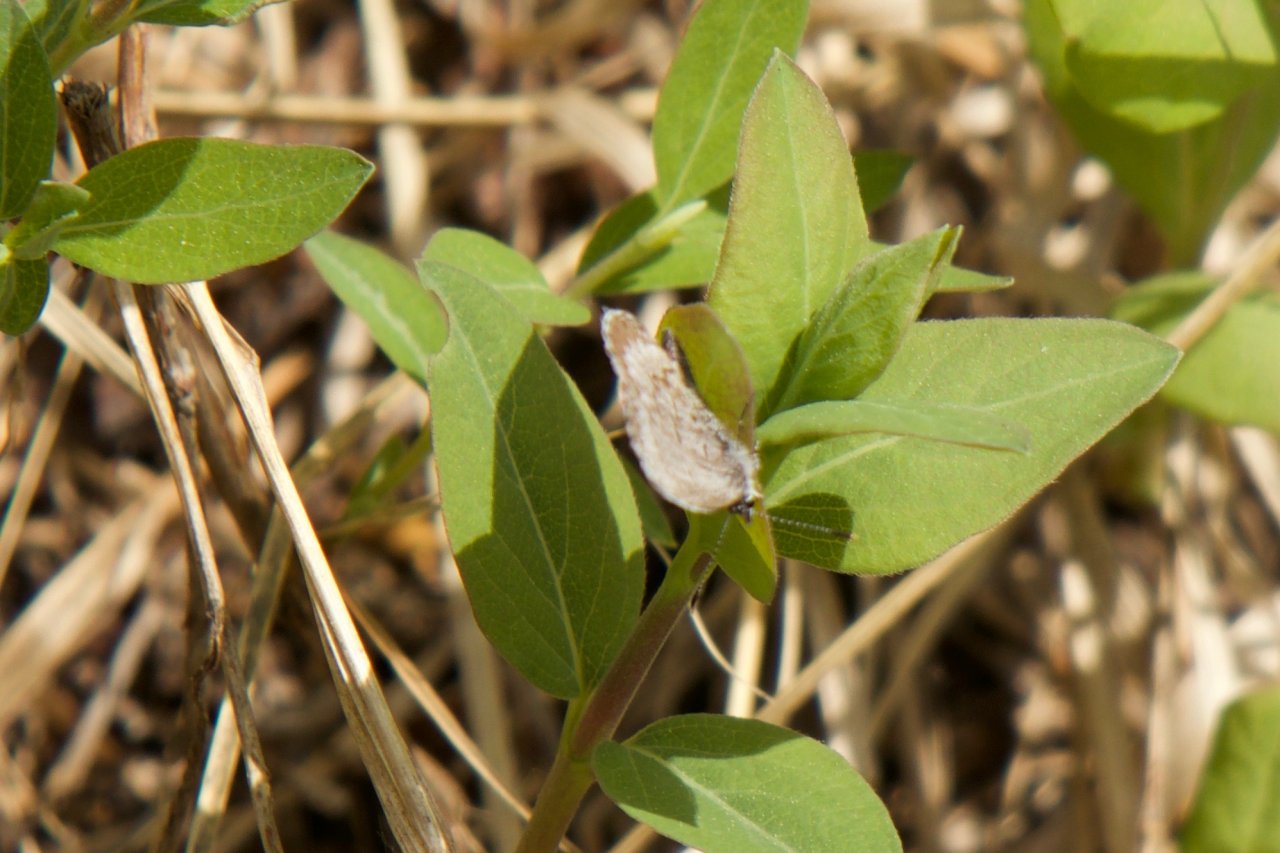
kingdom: Animalia
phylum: Arthropoda
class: Insecta
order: Lepidoptera
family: Lycaenidae
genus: Celastrina
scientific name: Celastrina lucia
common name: Northern Spring Azure
